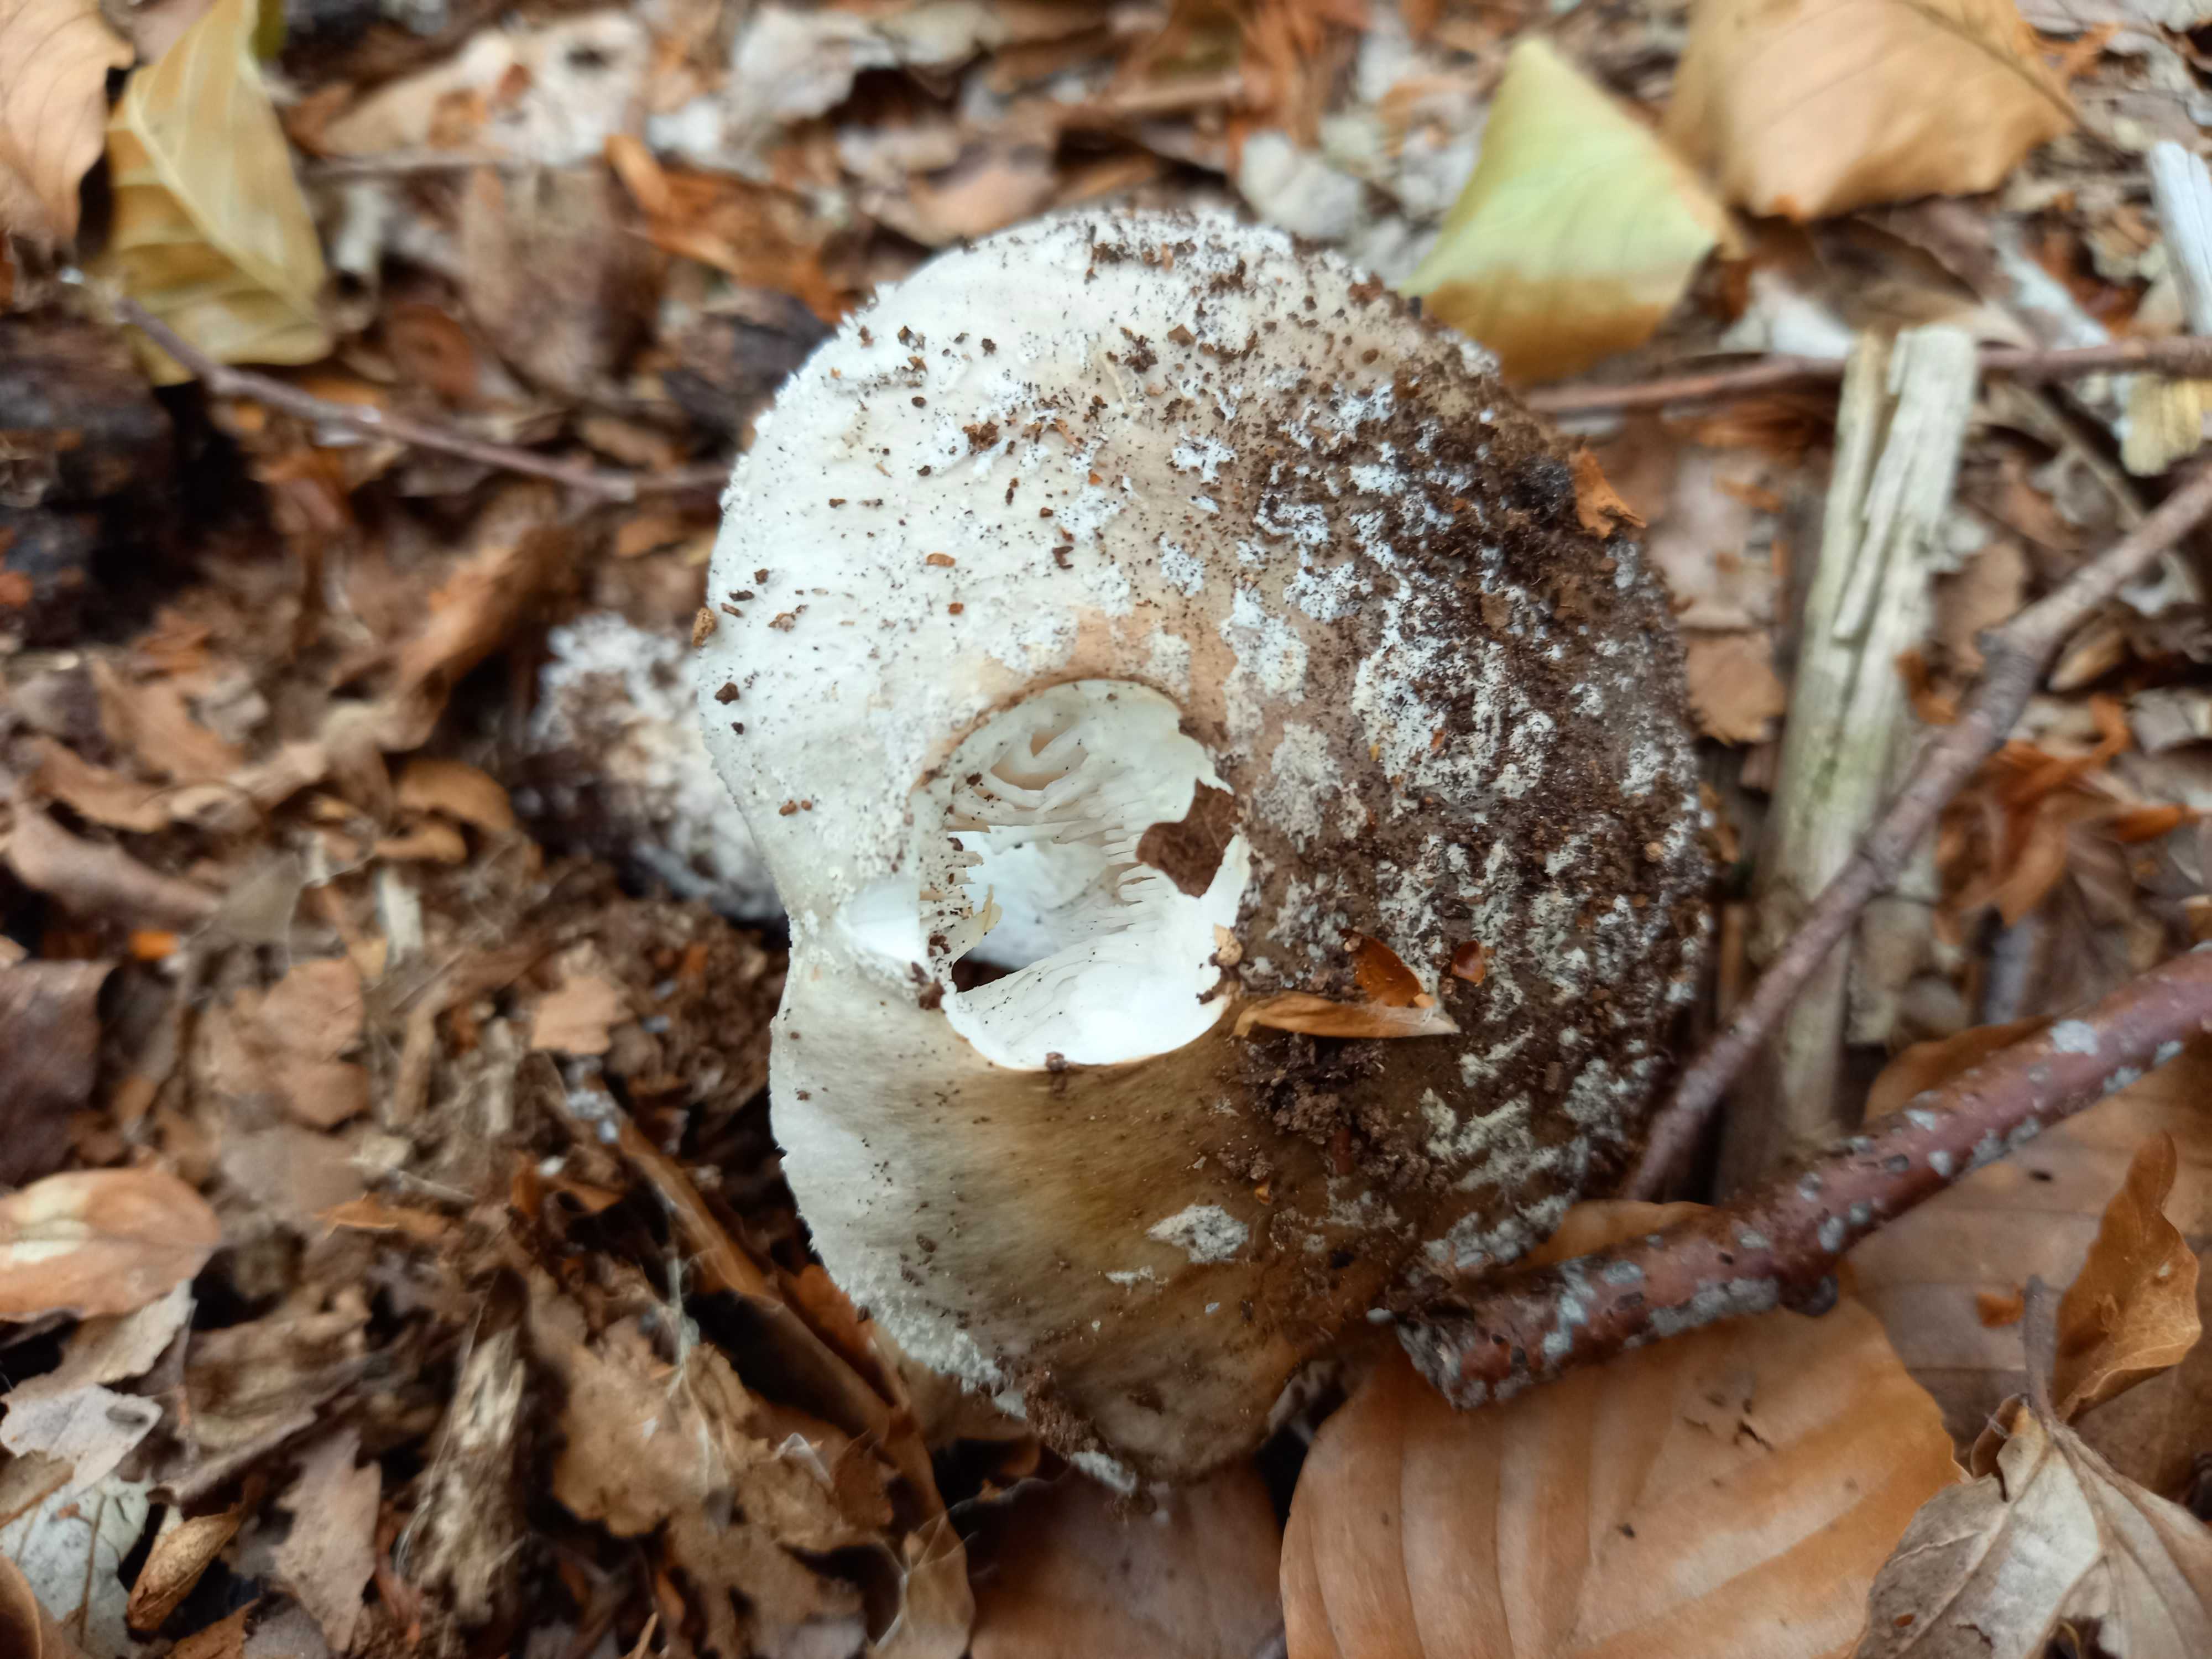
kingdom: Fungi
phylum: Basidiomycota
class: Agaricomycetes
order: Agaricales
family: Amanitaceae
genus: Amanita
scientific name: Amanita
